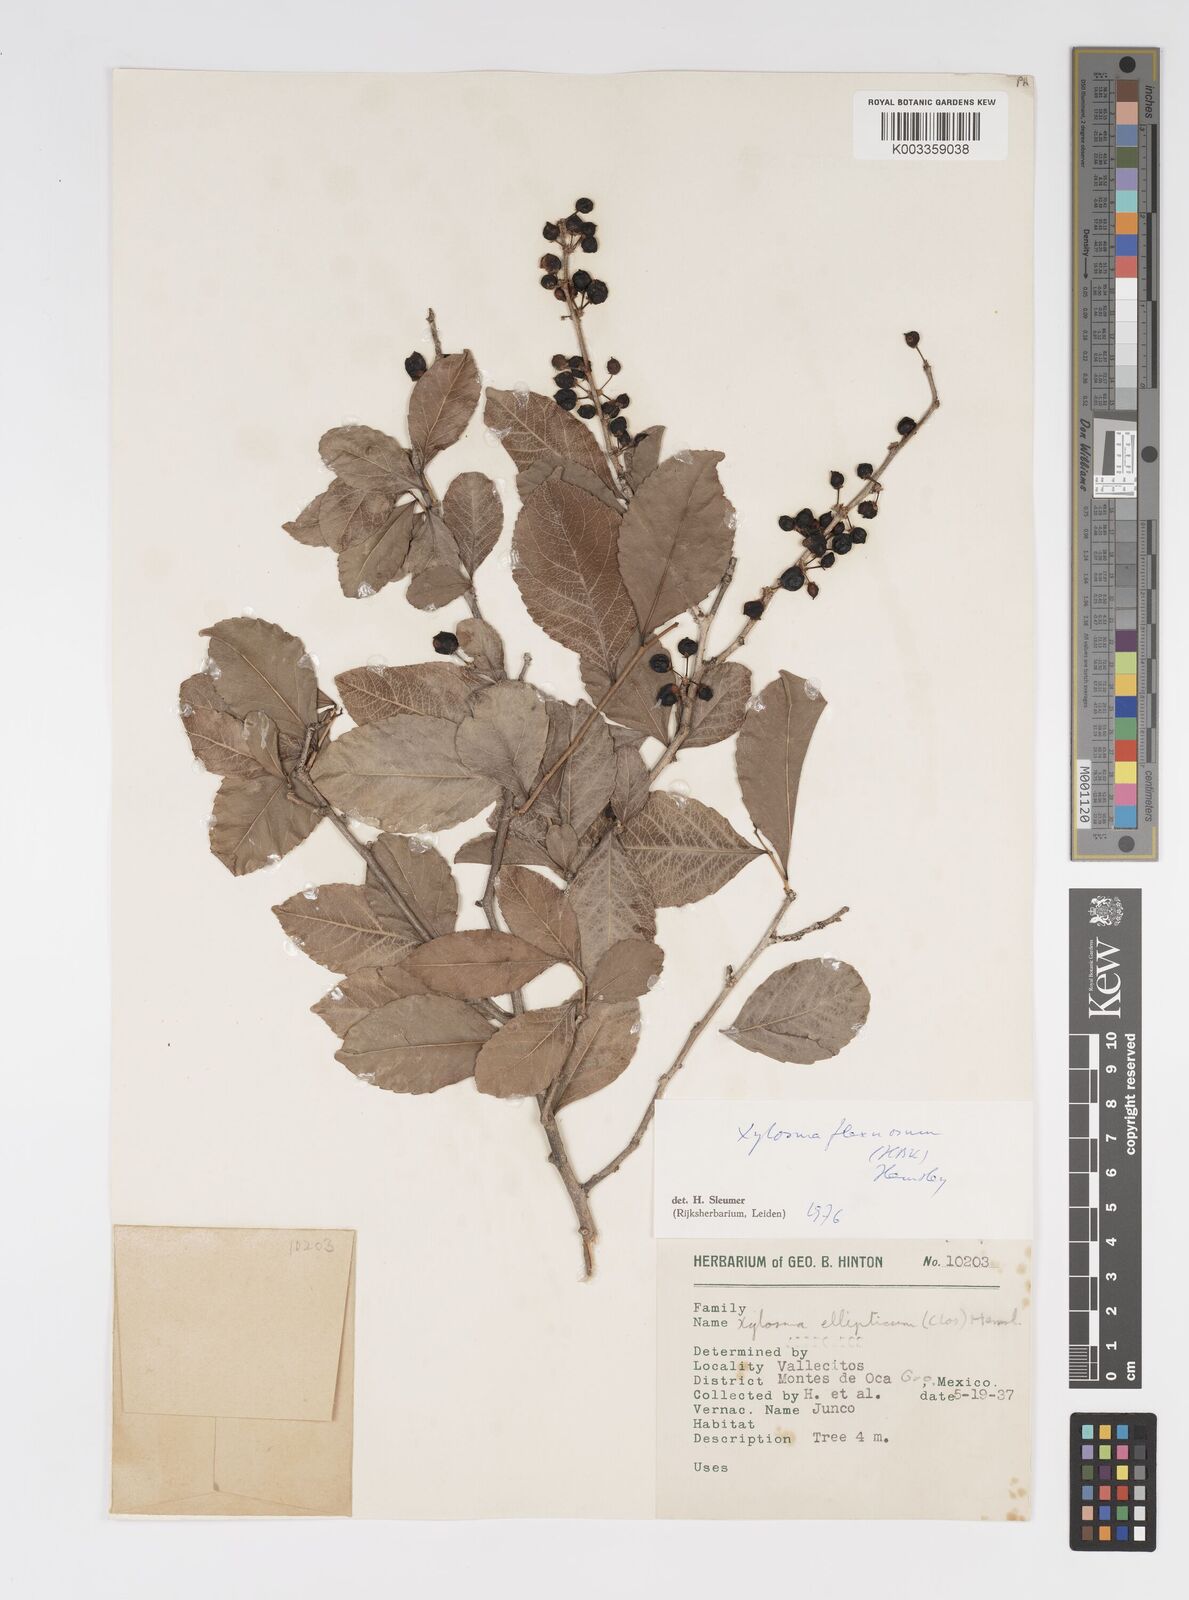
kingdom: Plantae
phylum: Tracheophyta
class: Magnoliopsida
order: Malpighiales
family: Salicaceae
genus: Xylosma
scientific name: Xylosma flexuosa
